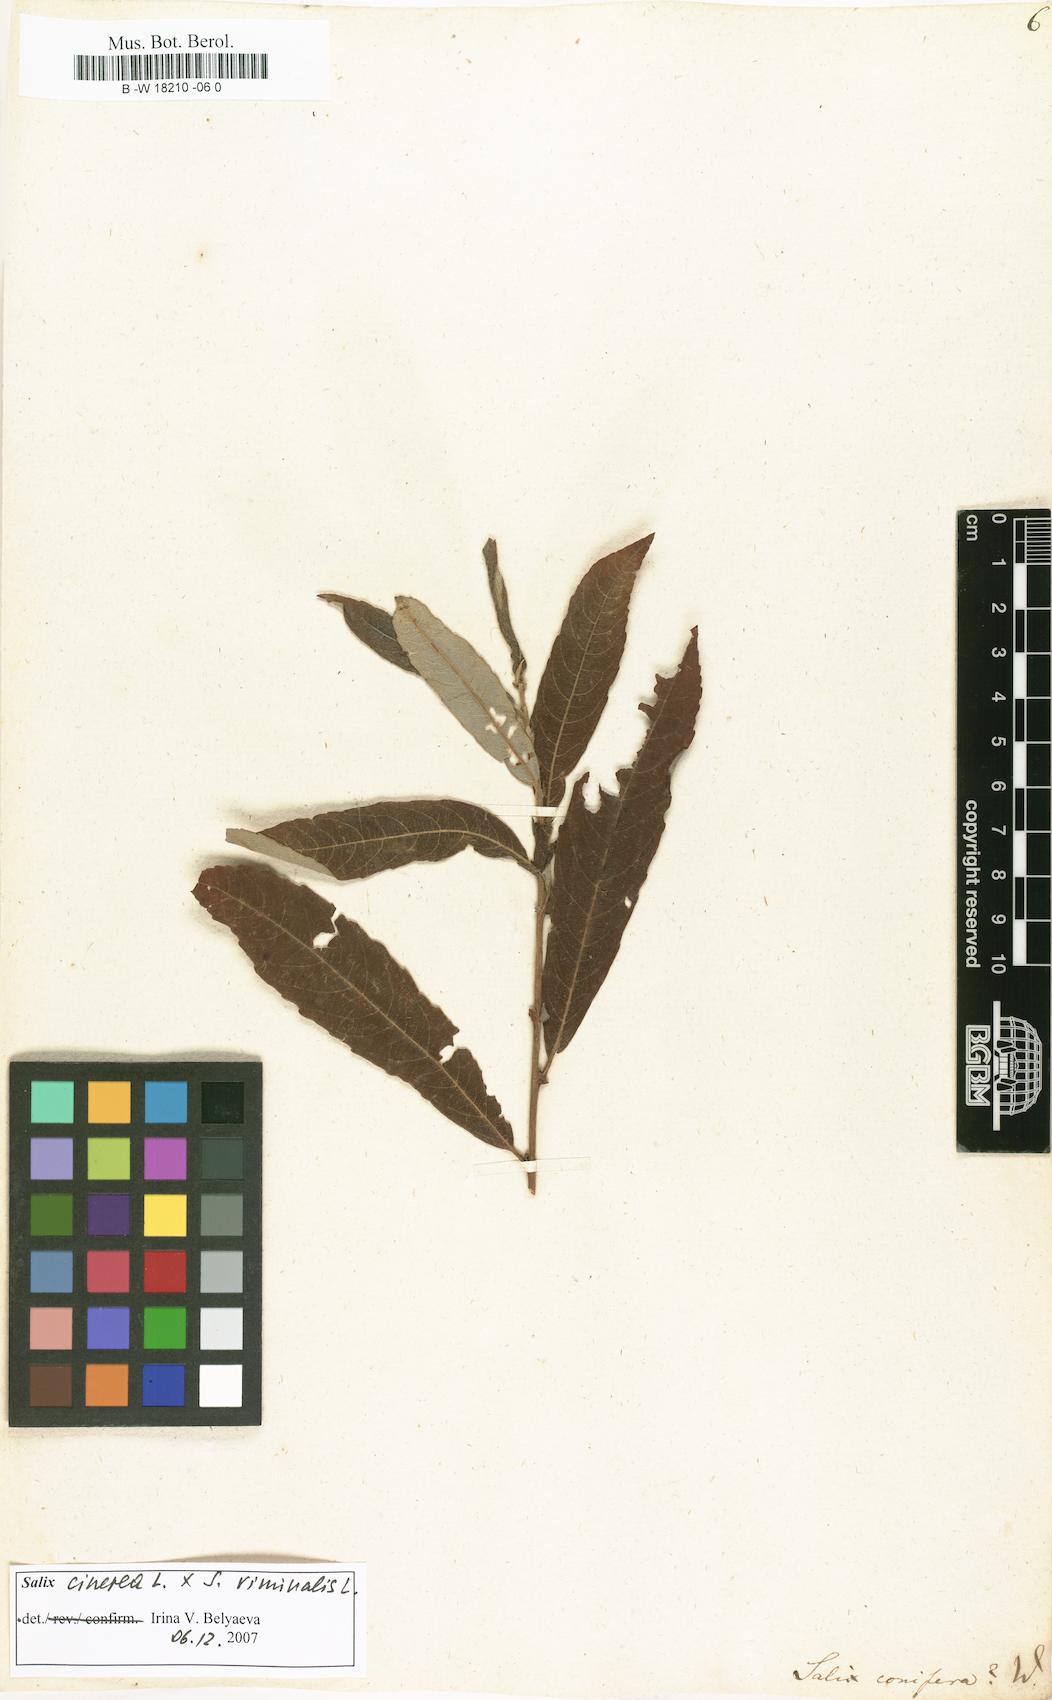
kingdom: Plantae
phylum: Tracheophyta
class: Magnoliopsida
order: Malpighiales
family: Salicaceae
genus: Salix
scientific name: Salix conifera
